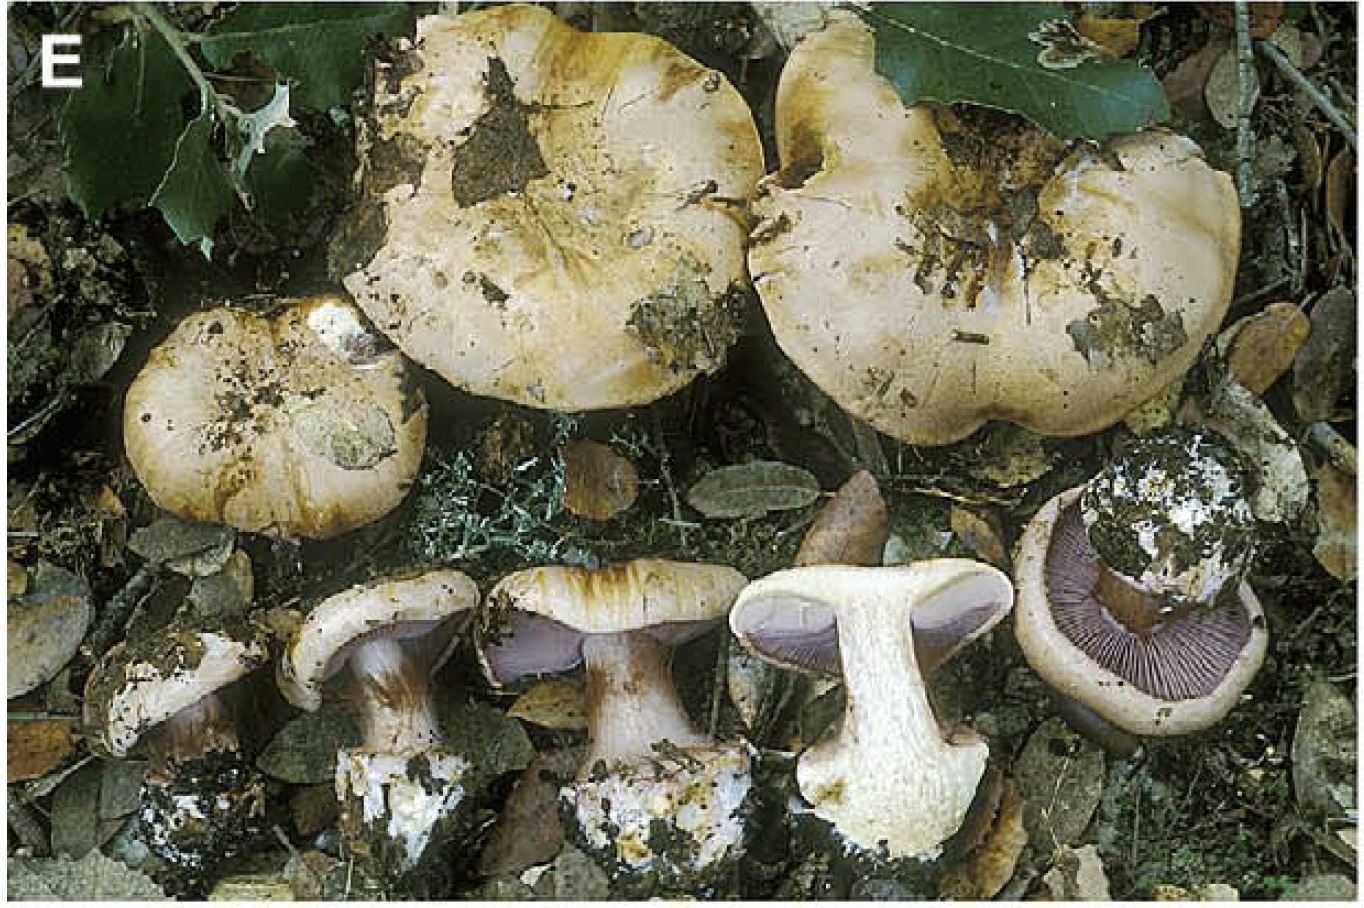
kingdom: Fungi
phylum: Basidiomycota
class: Agaricomycetes
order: Agaricales
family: Cortinariaceae
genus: Calonarius
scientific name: Calonarius sancti-felicis
